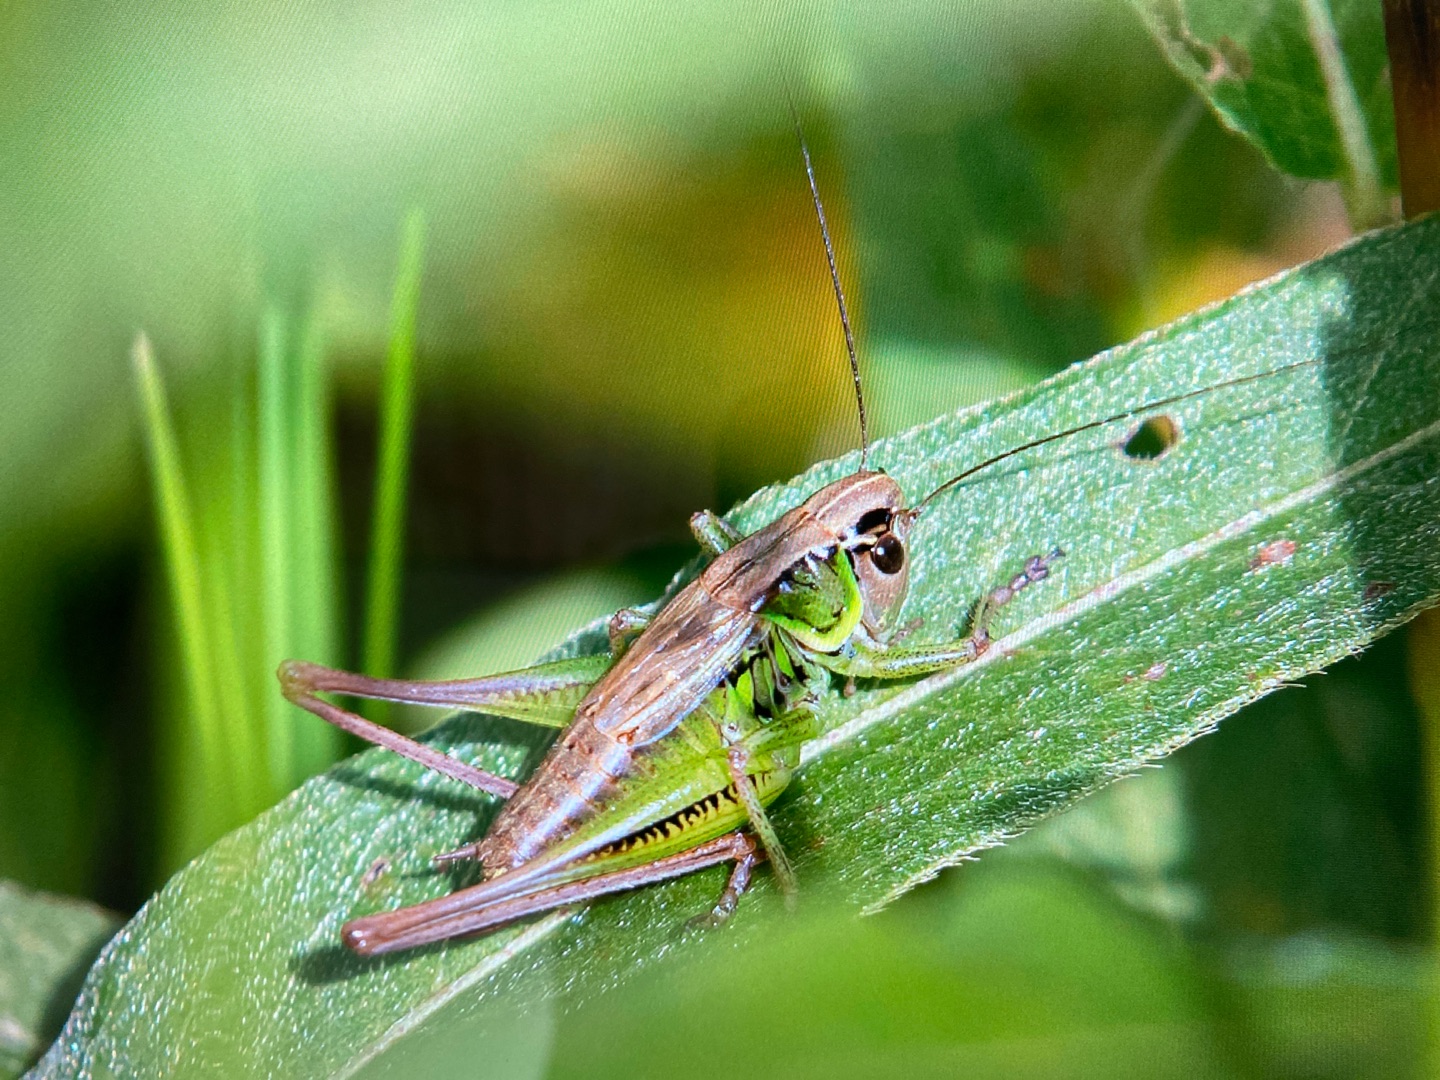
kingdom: Animalia
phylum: Arthropoda
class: Insecta
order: Orthoptera
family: Tettigoniidae
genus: Roeseliana
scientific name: Roeseliana roeselii
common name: Cikadegræshoppe
